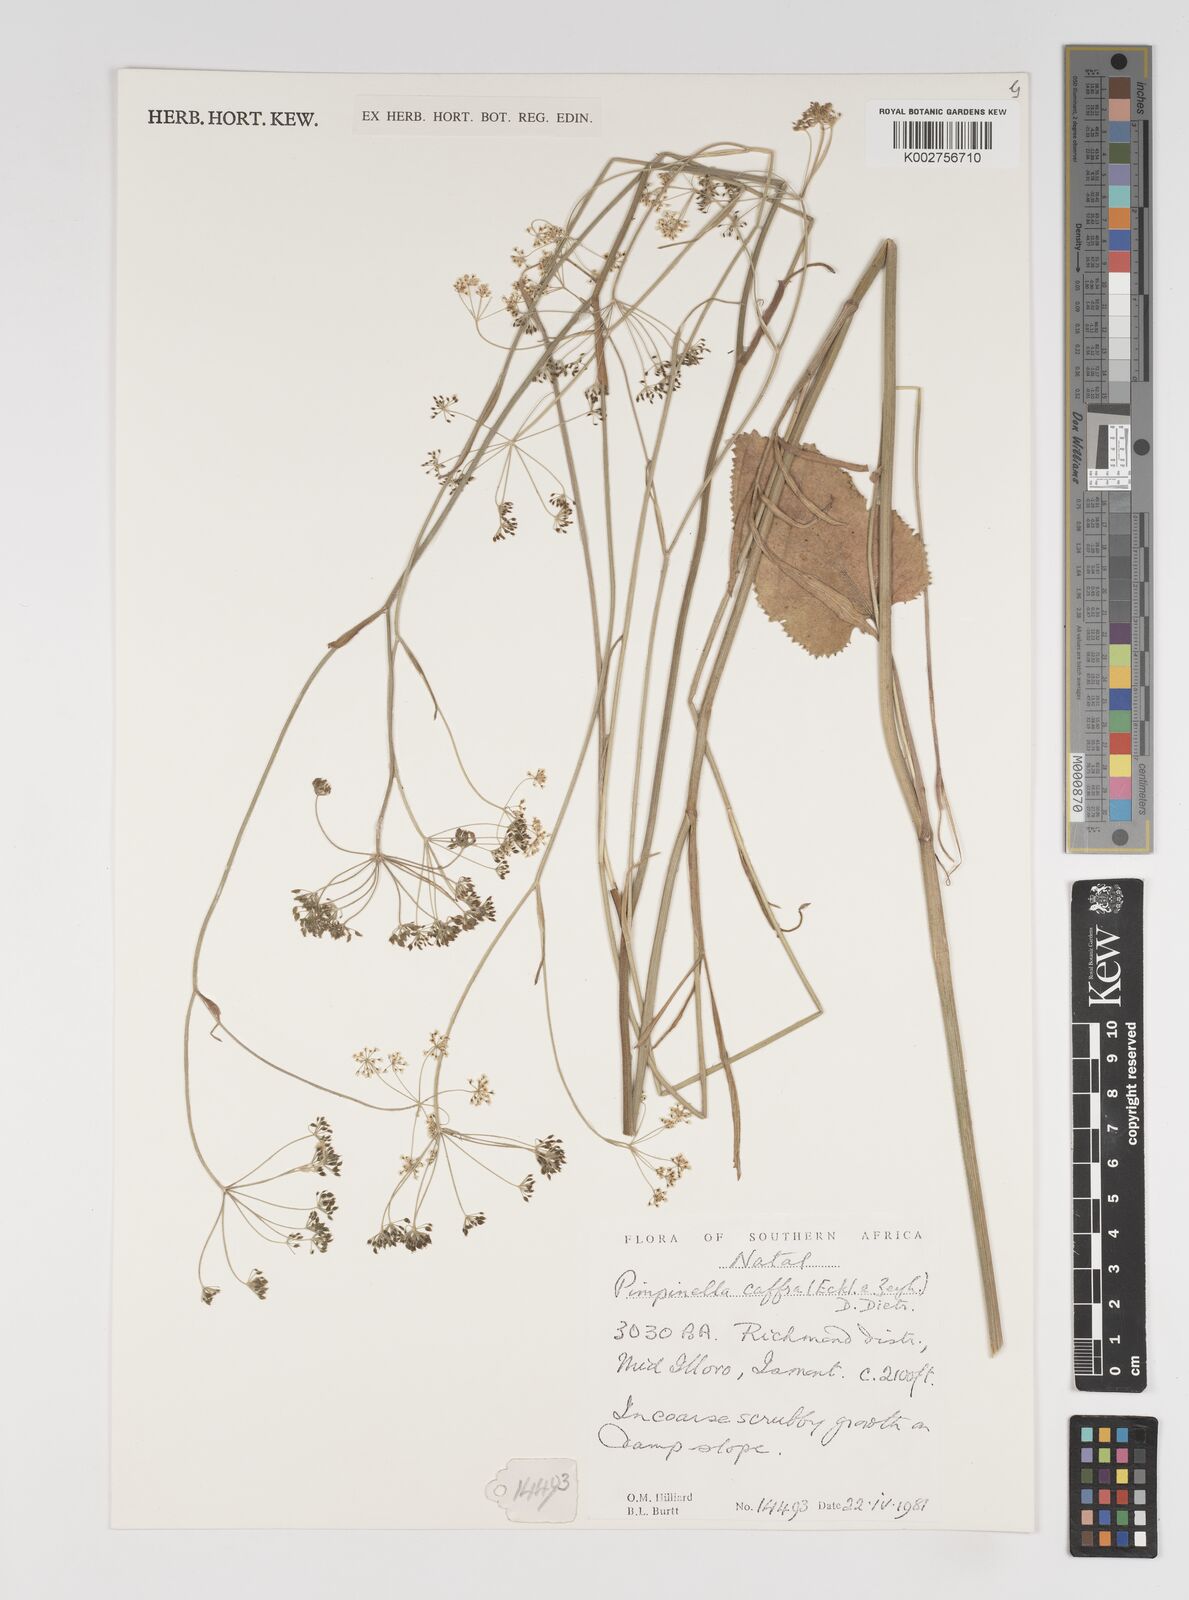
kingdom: Plantae
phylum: Tracheophyta
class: Magnoliopsida
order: Apiales
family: Apiaceae
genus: Pimpinella
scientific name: Pimpinella
